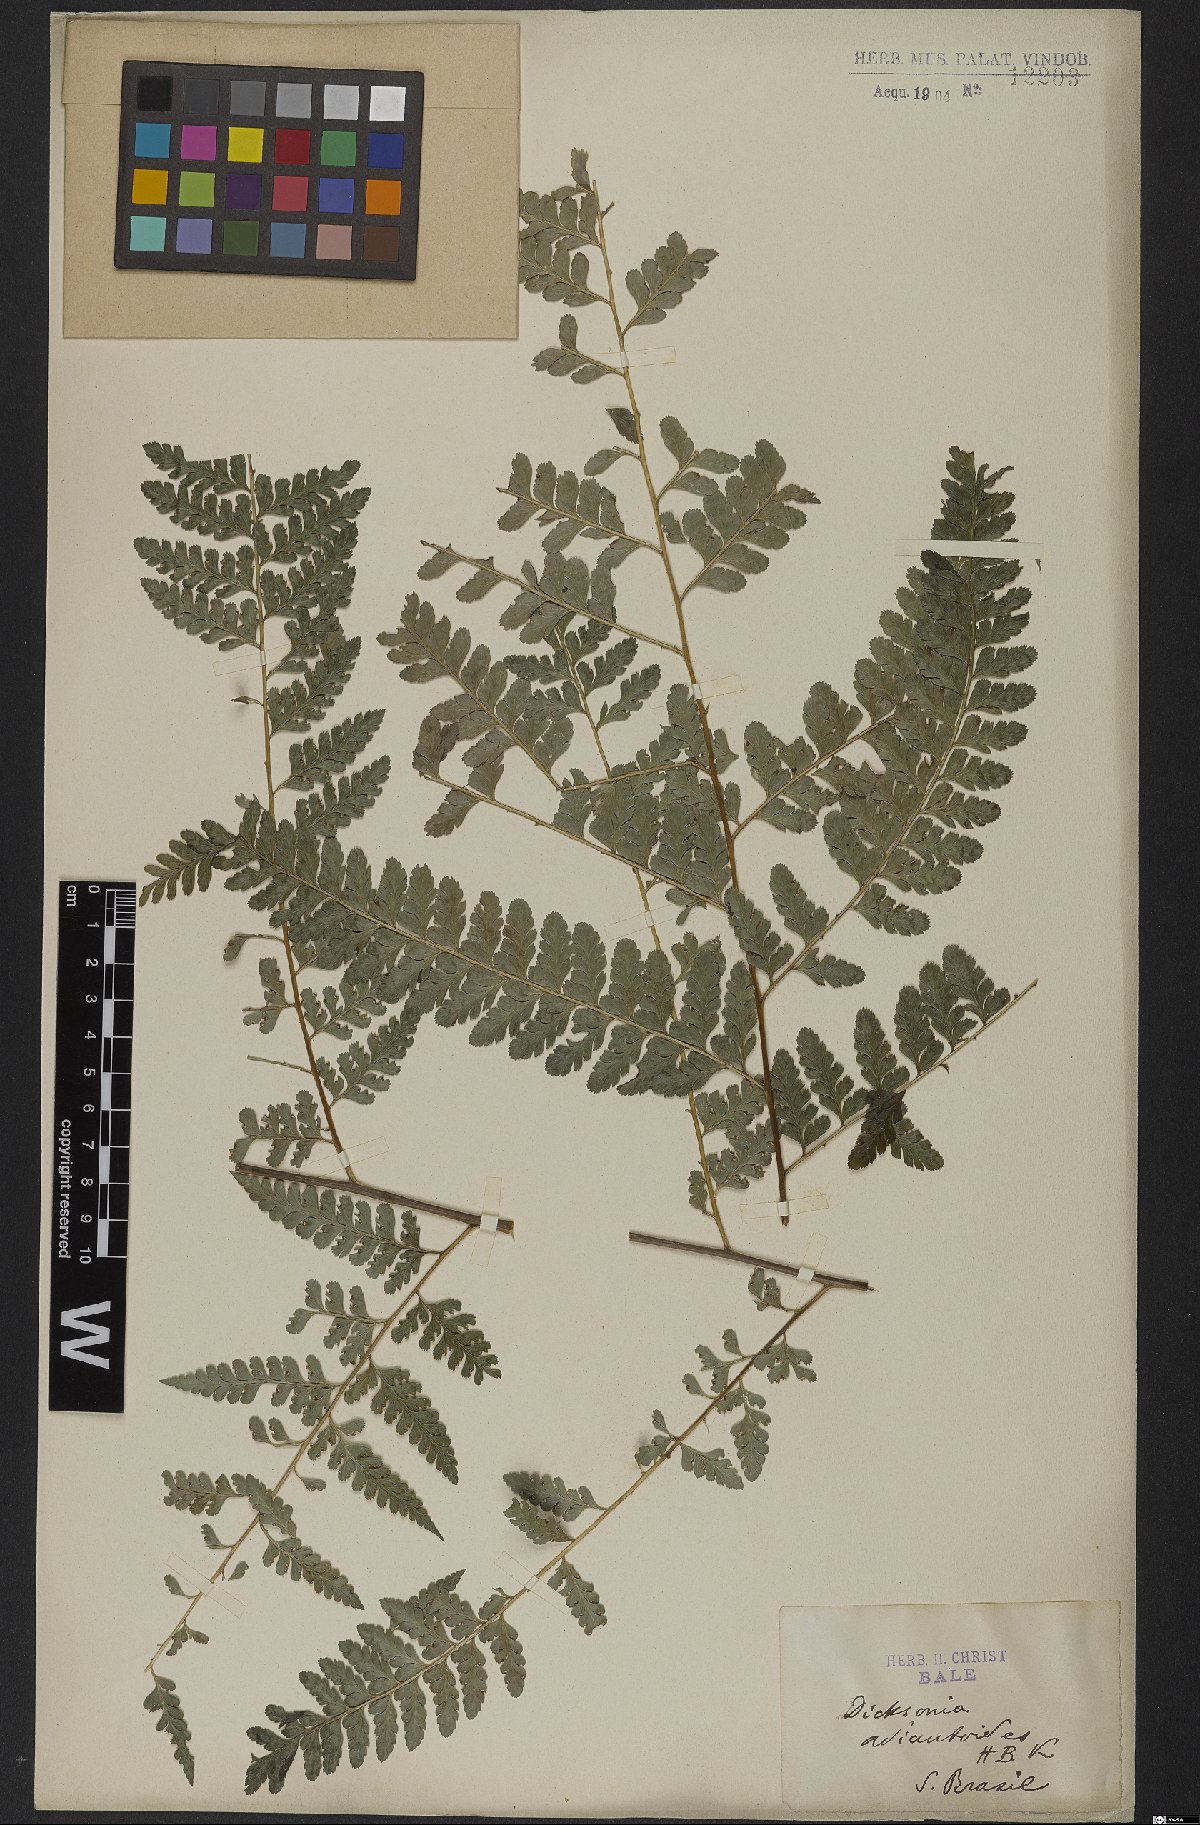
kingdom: Plantae
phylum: Tracheophyta
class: Polypodiopsida
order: Polypodiales
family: Dennstaedtiaceae
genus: Mucura
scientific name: Mucura bipinnata
